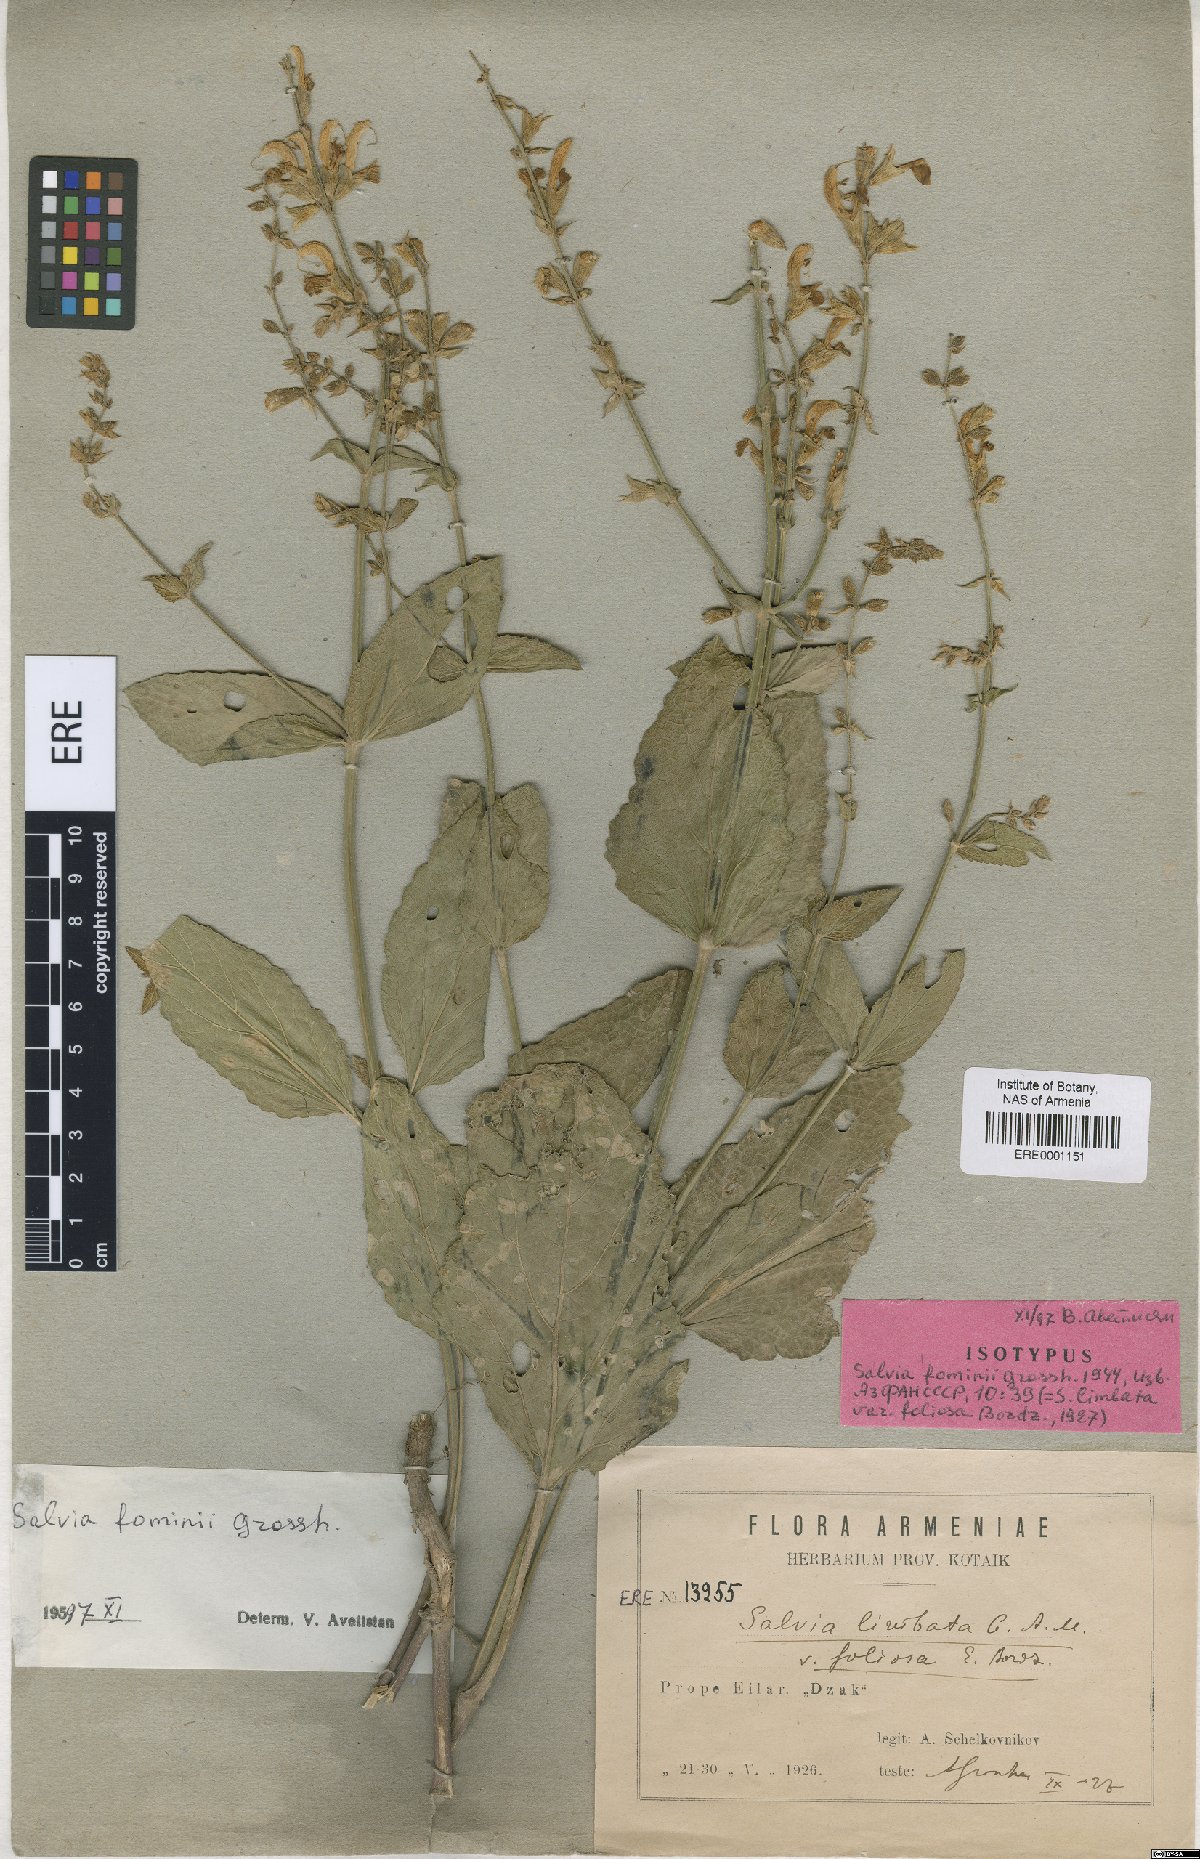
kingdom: Plantae
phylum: Tracheophyta
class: Magnoliopsida
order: Lamiales
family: Lamiaceae
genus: Salvia
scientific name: Salvia fominii
